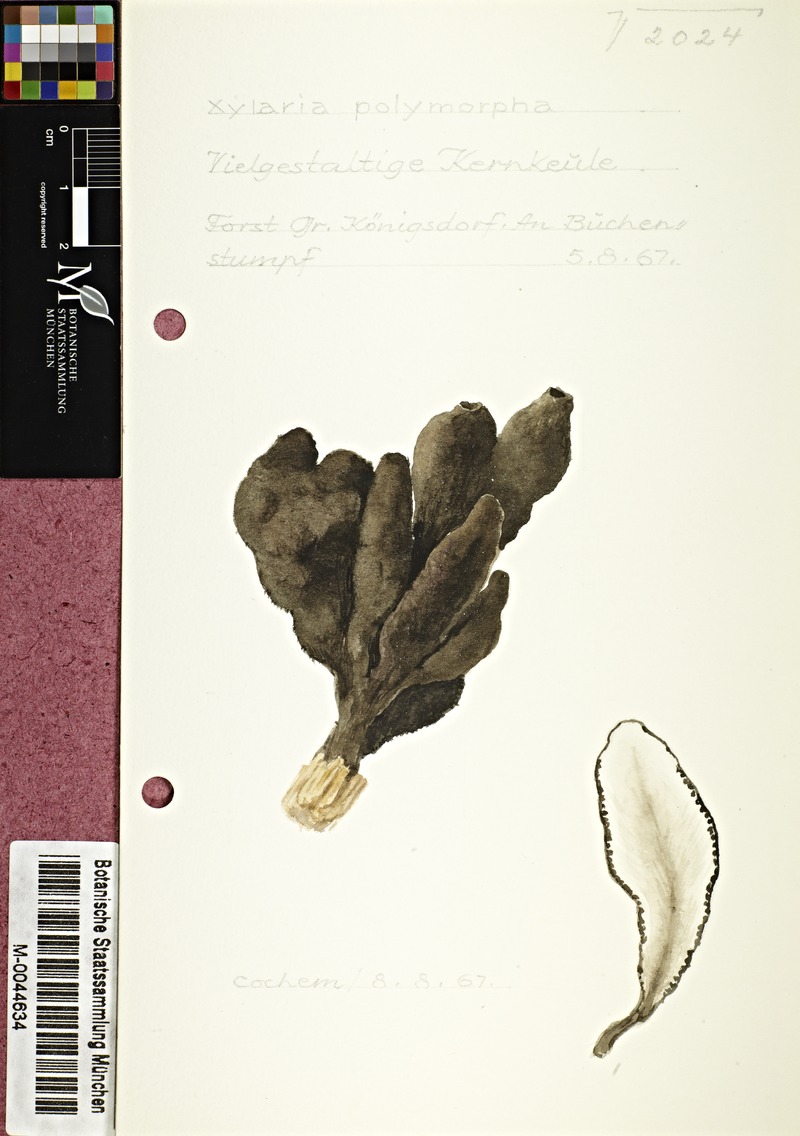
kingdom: Fungi
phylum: Ascomycota
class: Sordariomycetes
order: Xylariales
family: Xylariaceae
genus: Xylaria
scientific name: Xylaria polymorpha
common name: Dead man's fingers
